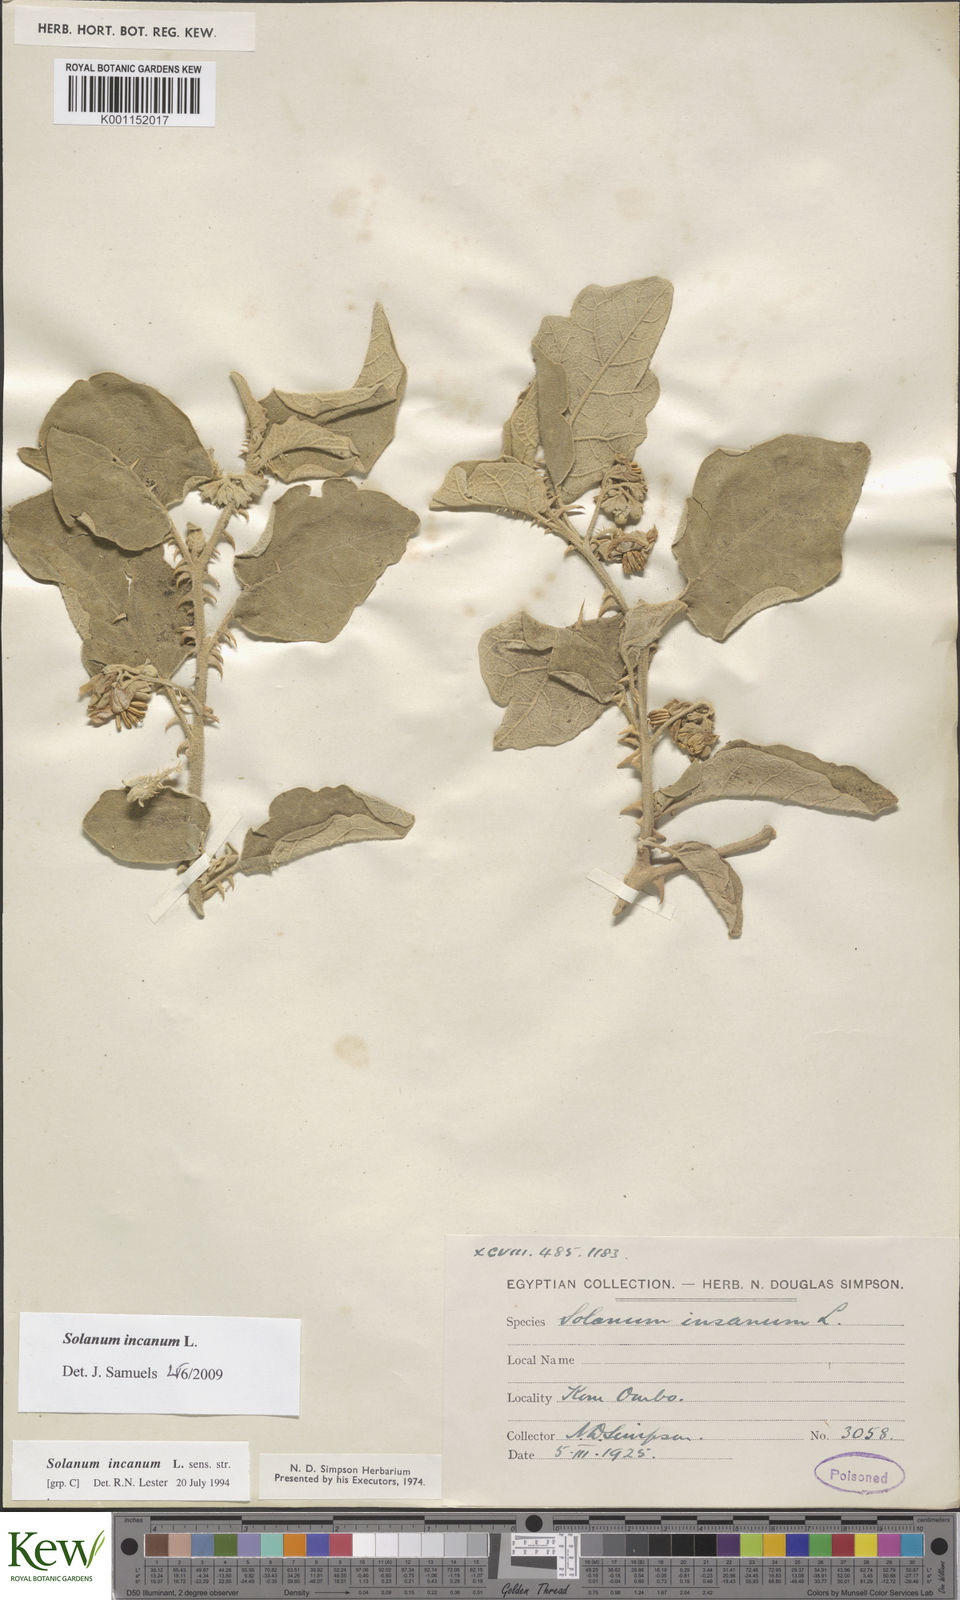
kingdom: Plantae
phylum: Tracheophyta
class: Magnoliopsida
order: Solanales
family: Solanaceae
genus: Solanum
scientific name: Solanum incanum
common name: Bitter apple
